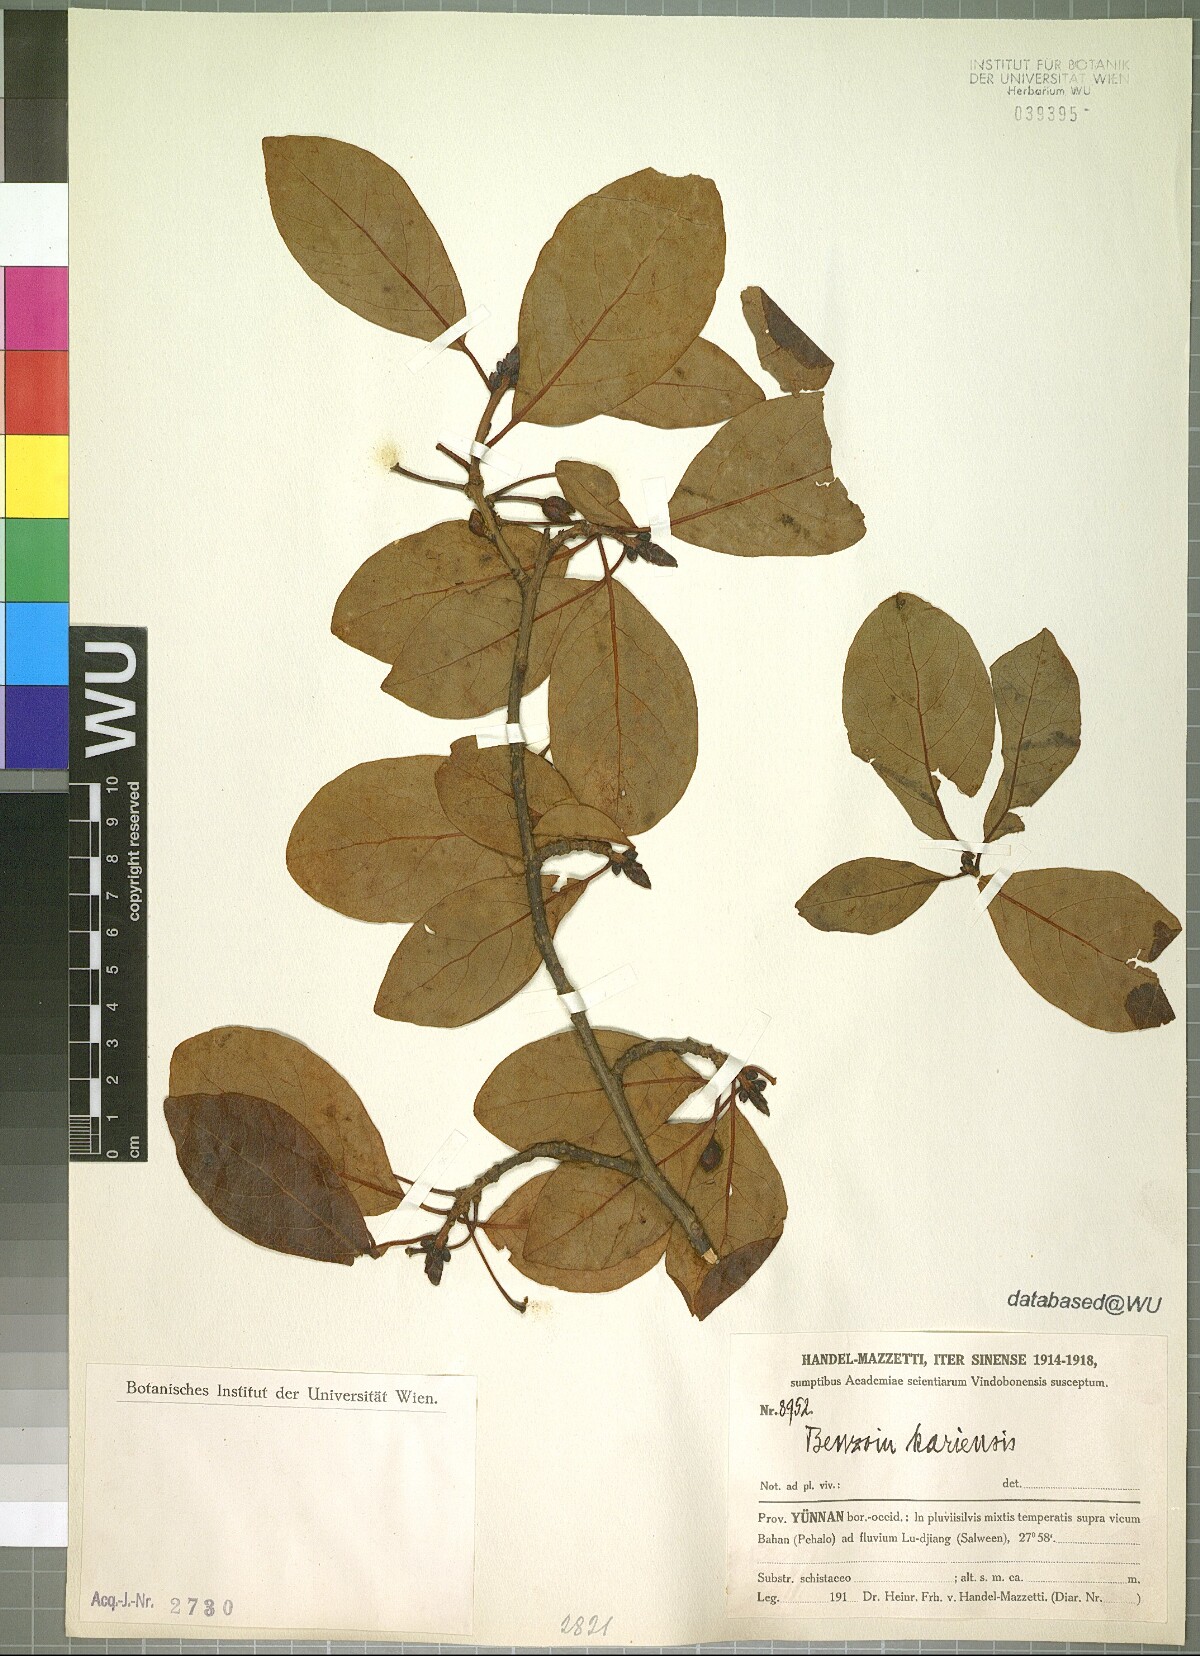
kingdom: Plantae
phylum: Tracheophyta
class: Magnoliopsida
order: Laurales
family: Lauraceae
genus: Lindera
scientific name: Lindera kariensis
